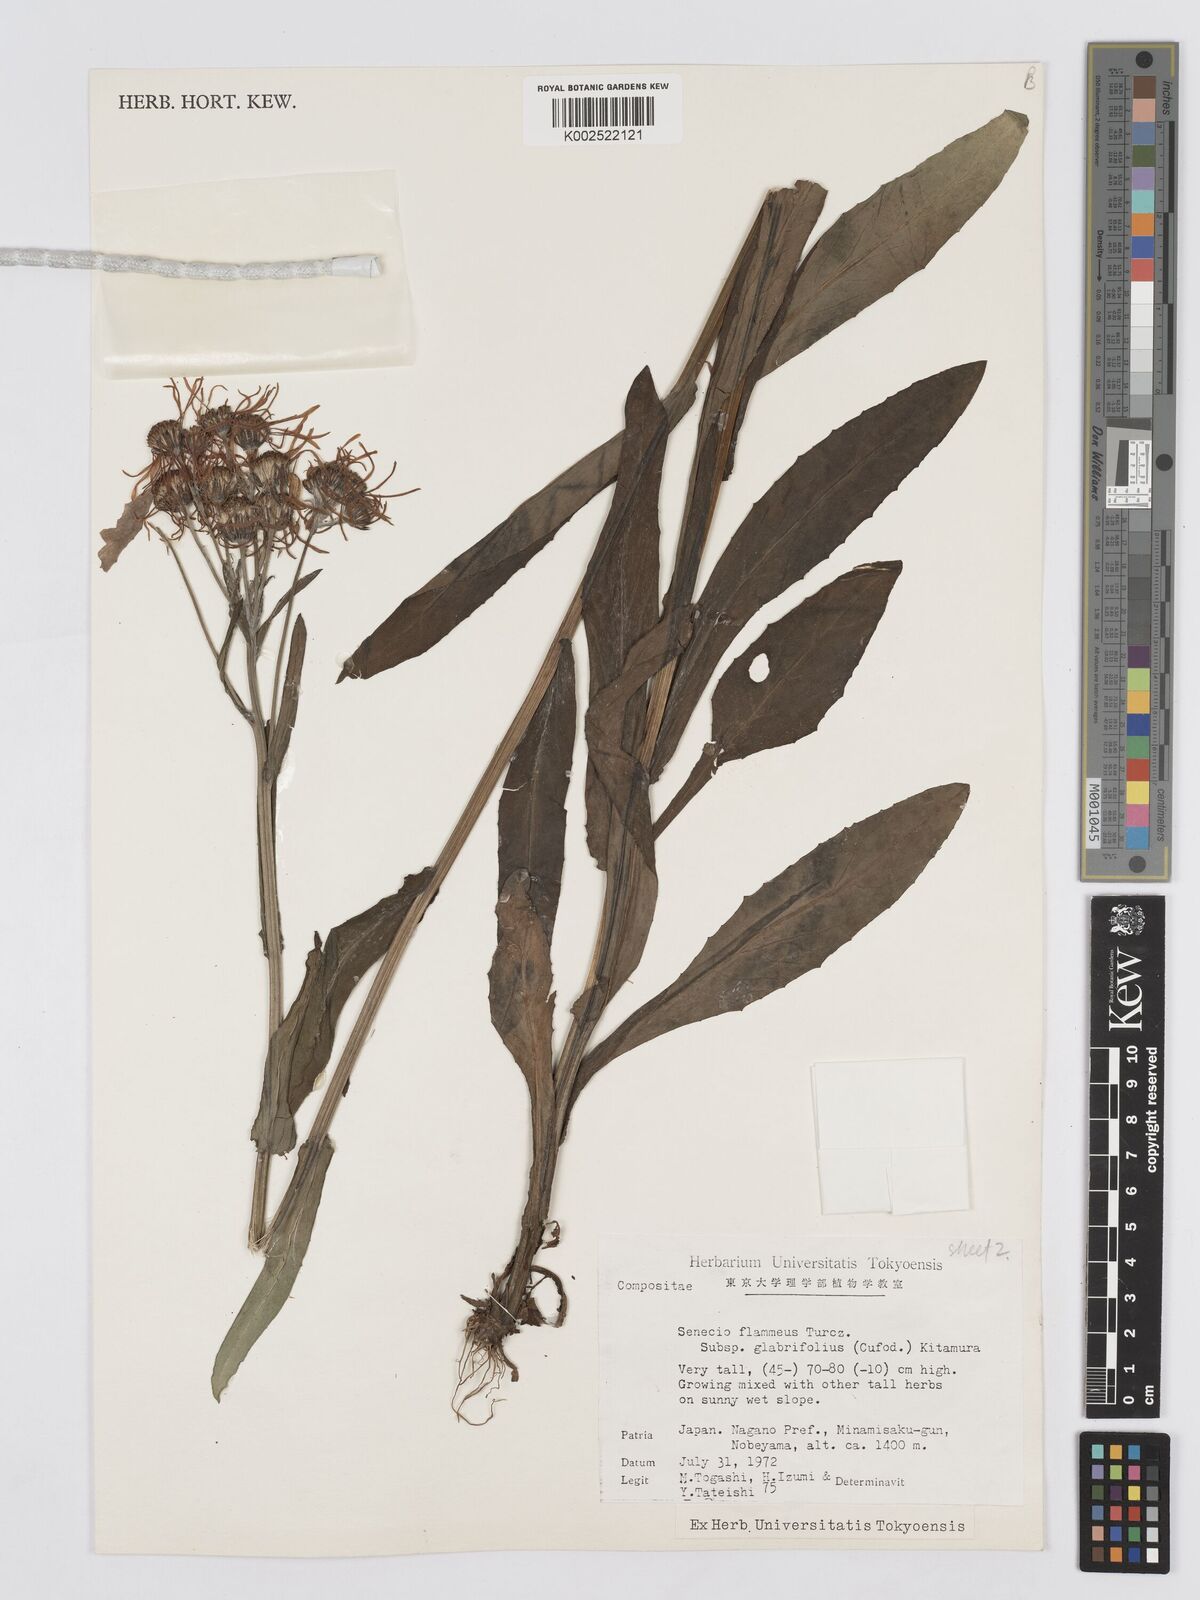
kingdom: Plantae
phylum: Tracheophyta
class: Magnoliopsida
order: Asterales
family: Asteraceae
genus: Tephroseris
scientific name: Tephroseris flammea
